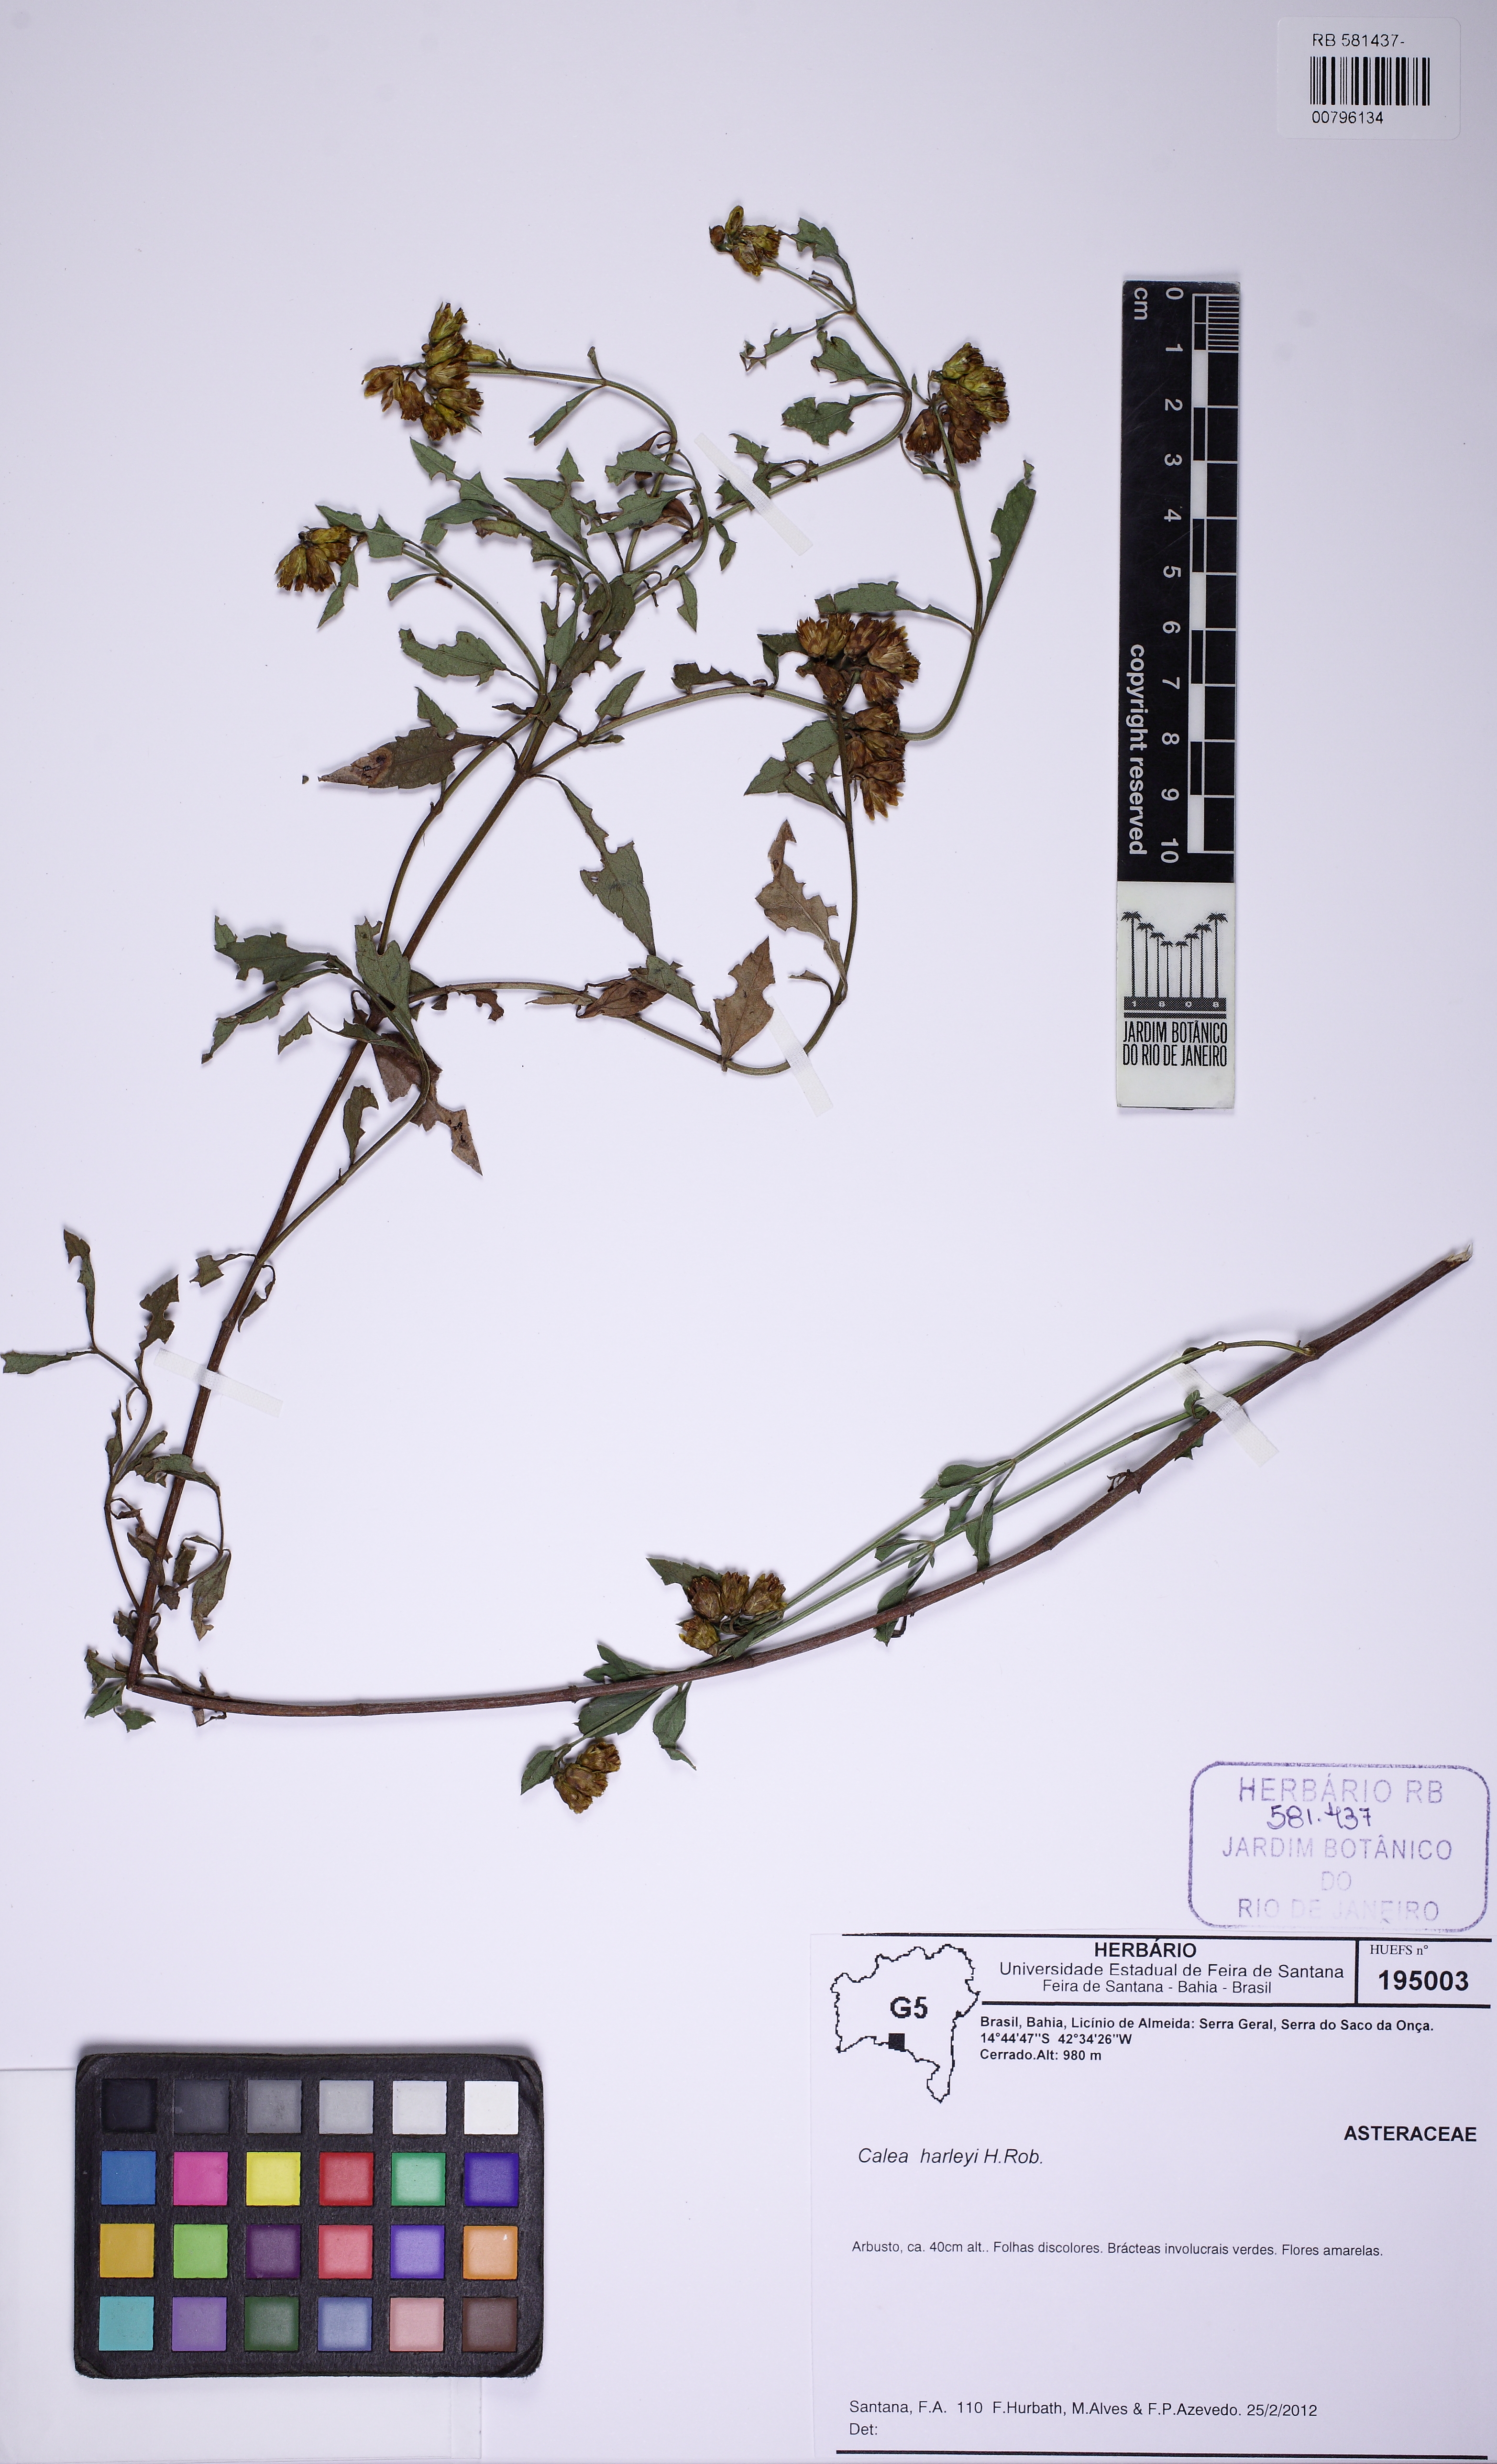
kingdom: Plantae
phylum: Tracheophyta
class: Magnoliopsida
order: Asterales
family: Asteraceae
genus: Calea
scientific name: Calea harleyi
